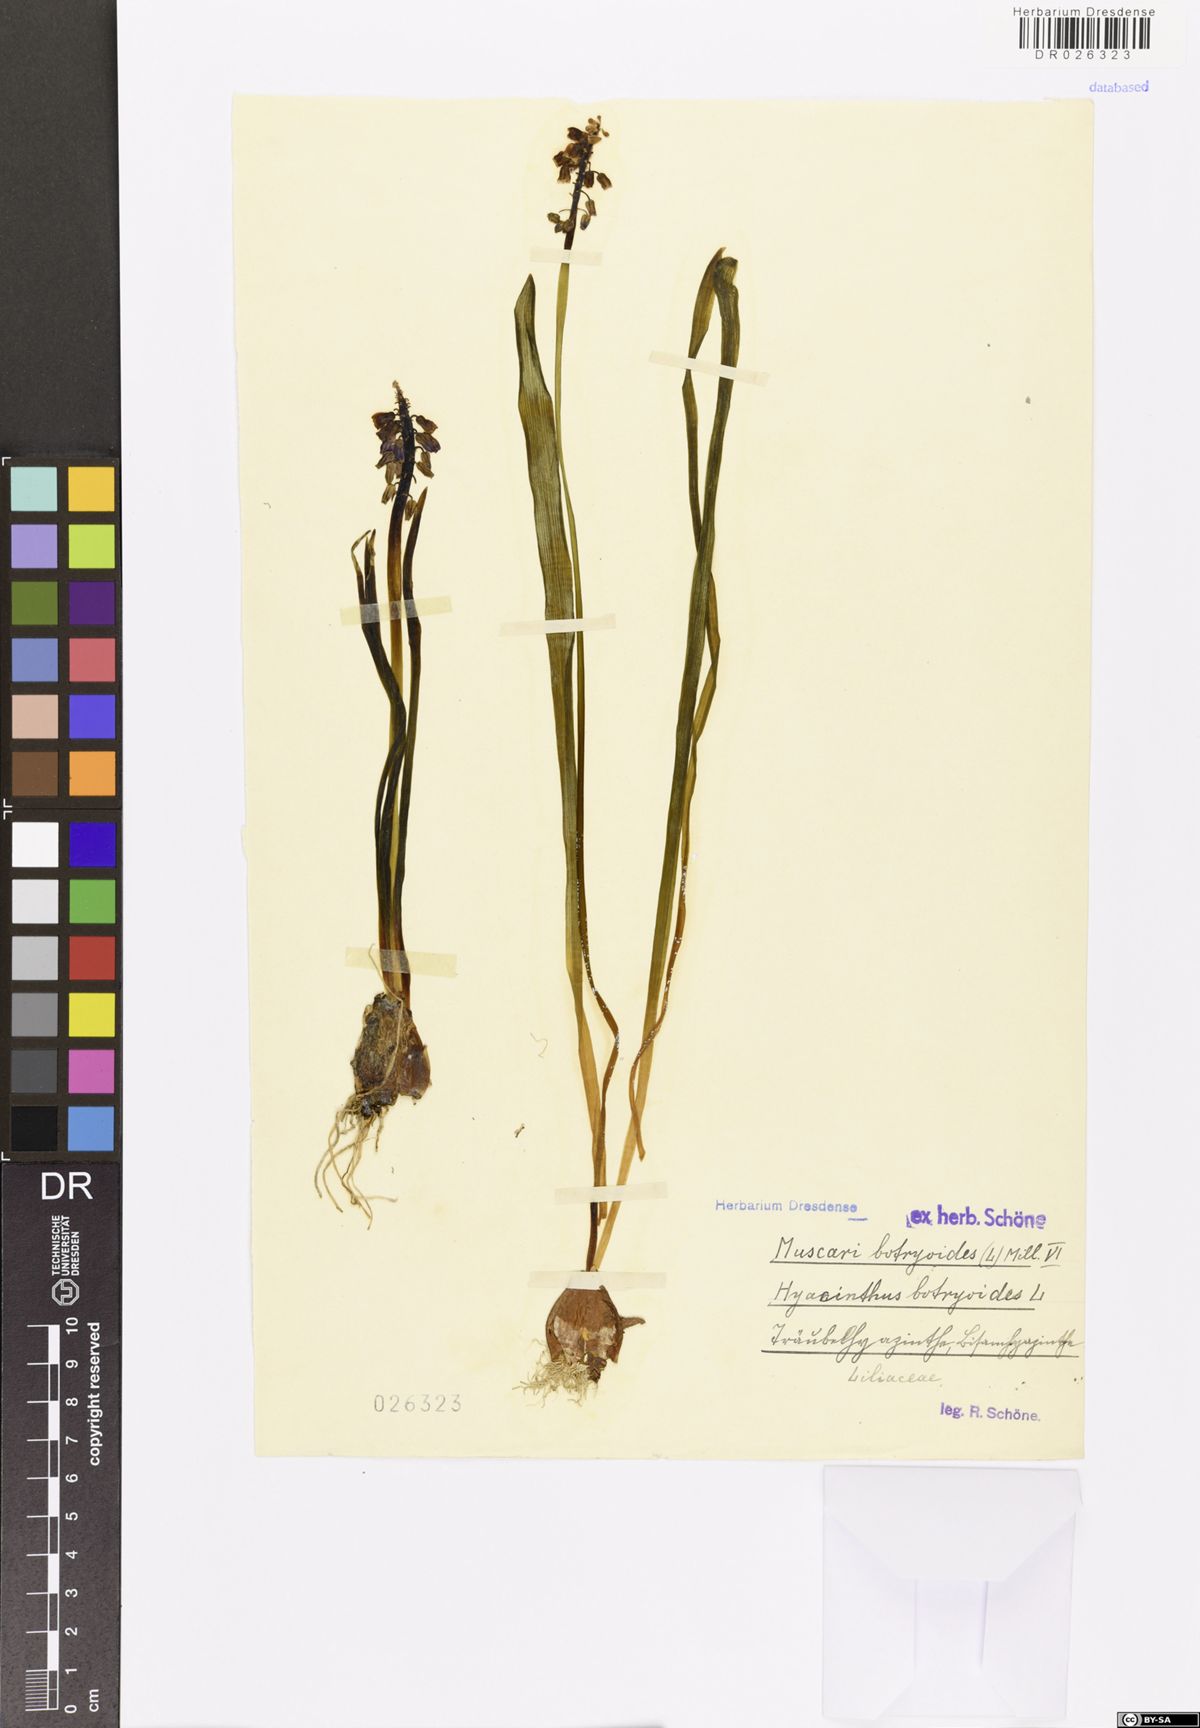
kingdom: Plantae
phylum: Tracheophyta
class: Liliopsida
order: Asparagales
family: Asparagaceae
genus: Muscari
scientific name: Muscari botryoides
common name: Compact grape-hyacinth
